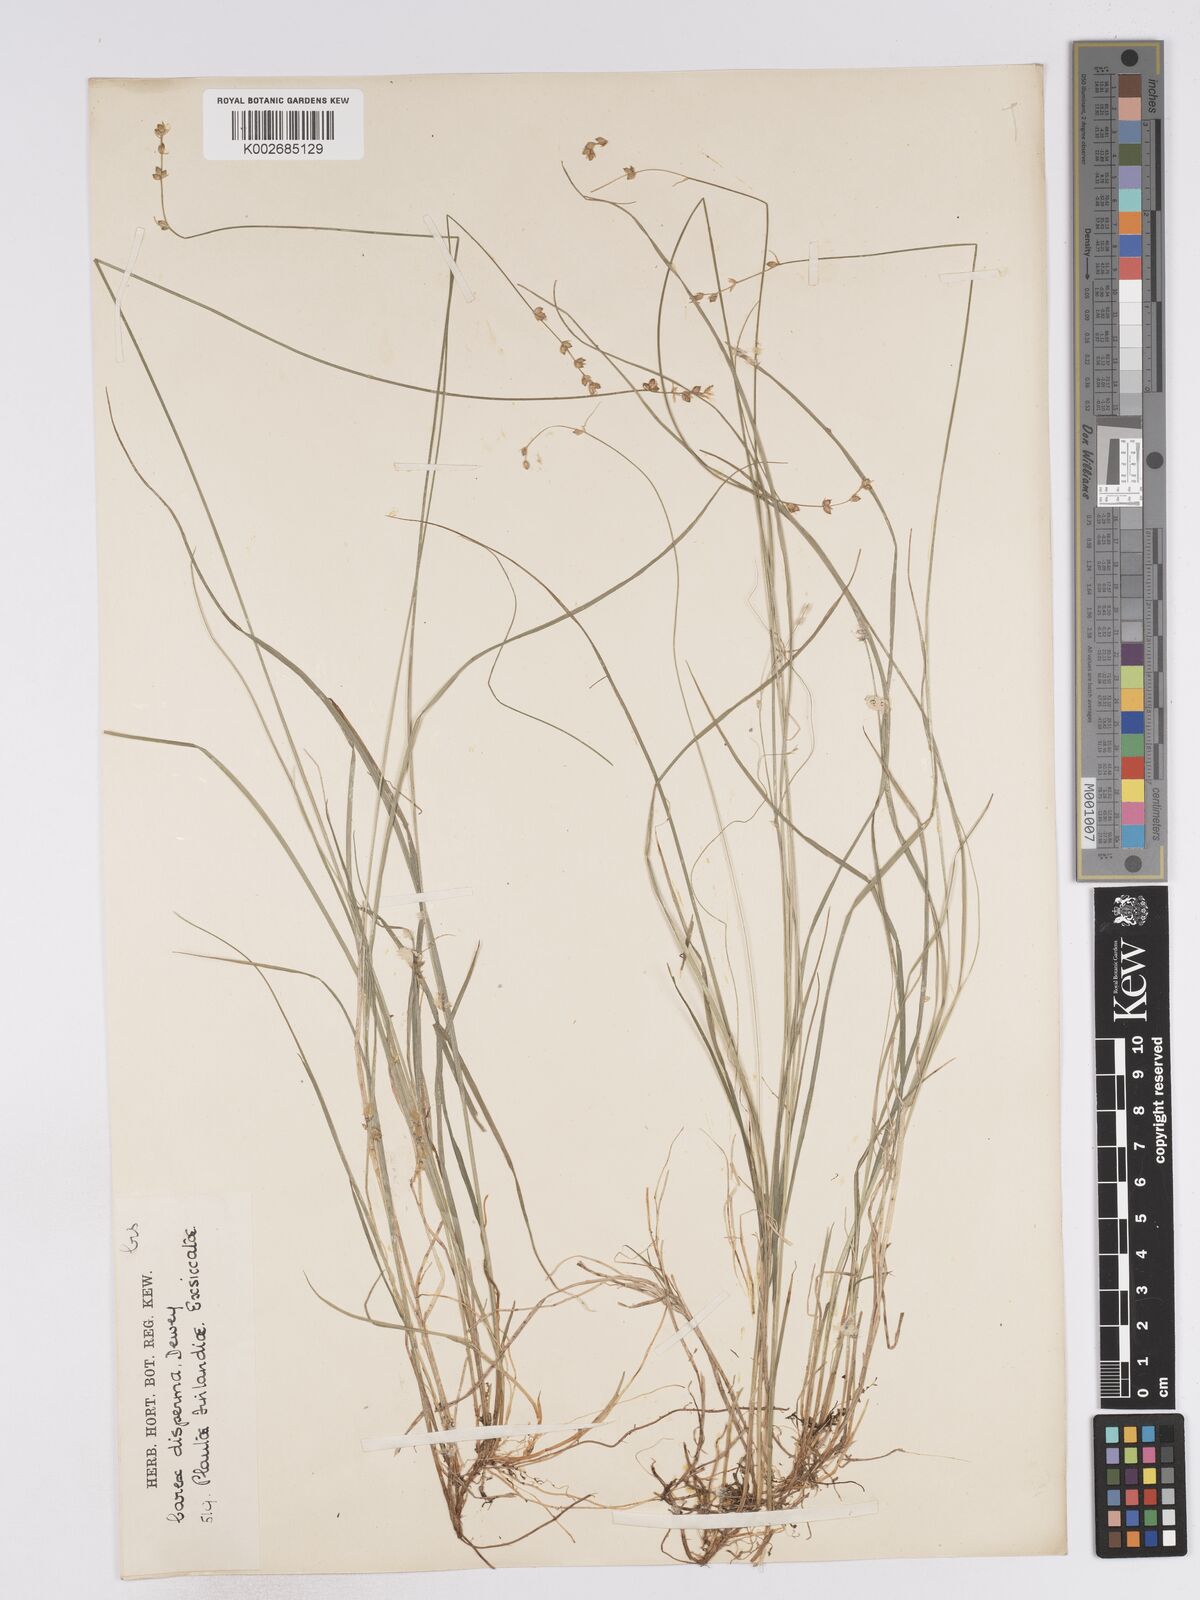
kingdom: Plantae
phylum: Tracheophyta
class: Liliopsida
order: Poales
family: Cyperaceae
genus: Carex
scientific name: Carex disperma
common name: Short-leaved sedge
